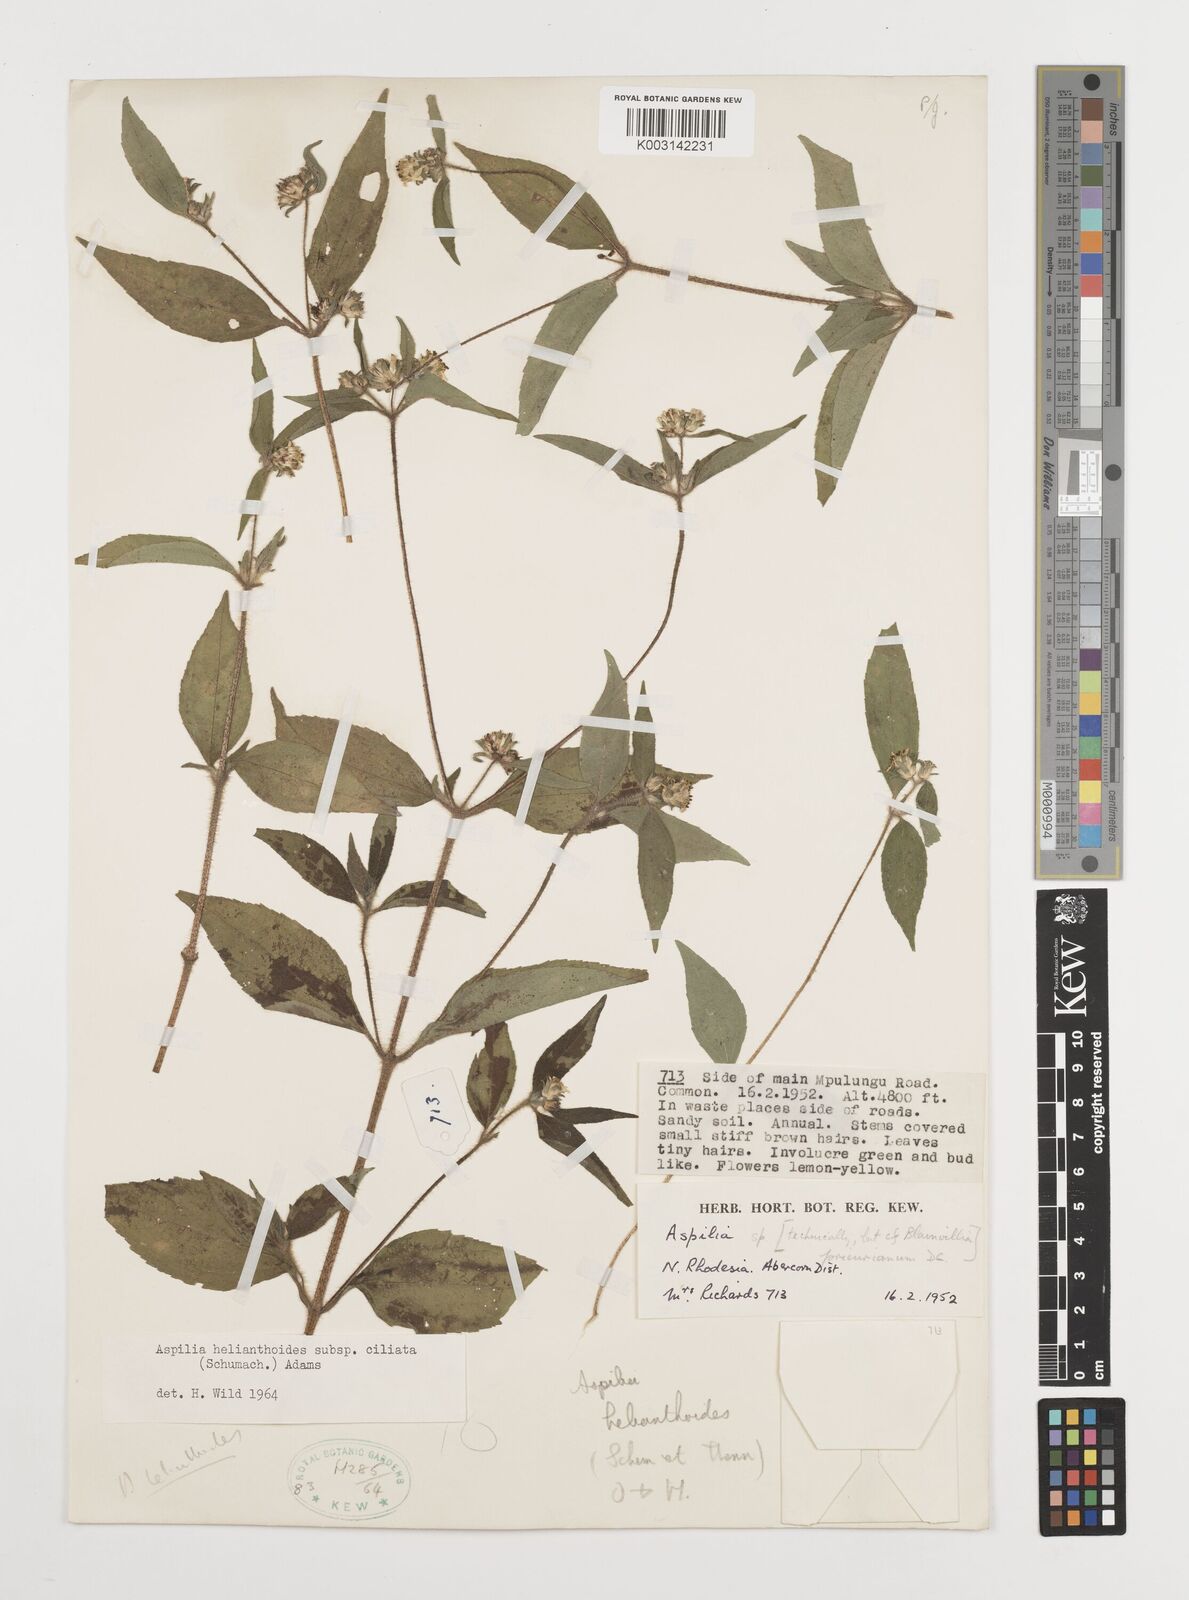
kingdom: Plantae
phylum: Tracheophyta
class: Magnoliopsida
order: Asterales
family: Asteraceae
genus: Aspilia
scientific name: Aspilia ciliata
